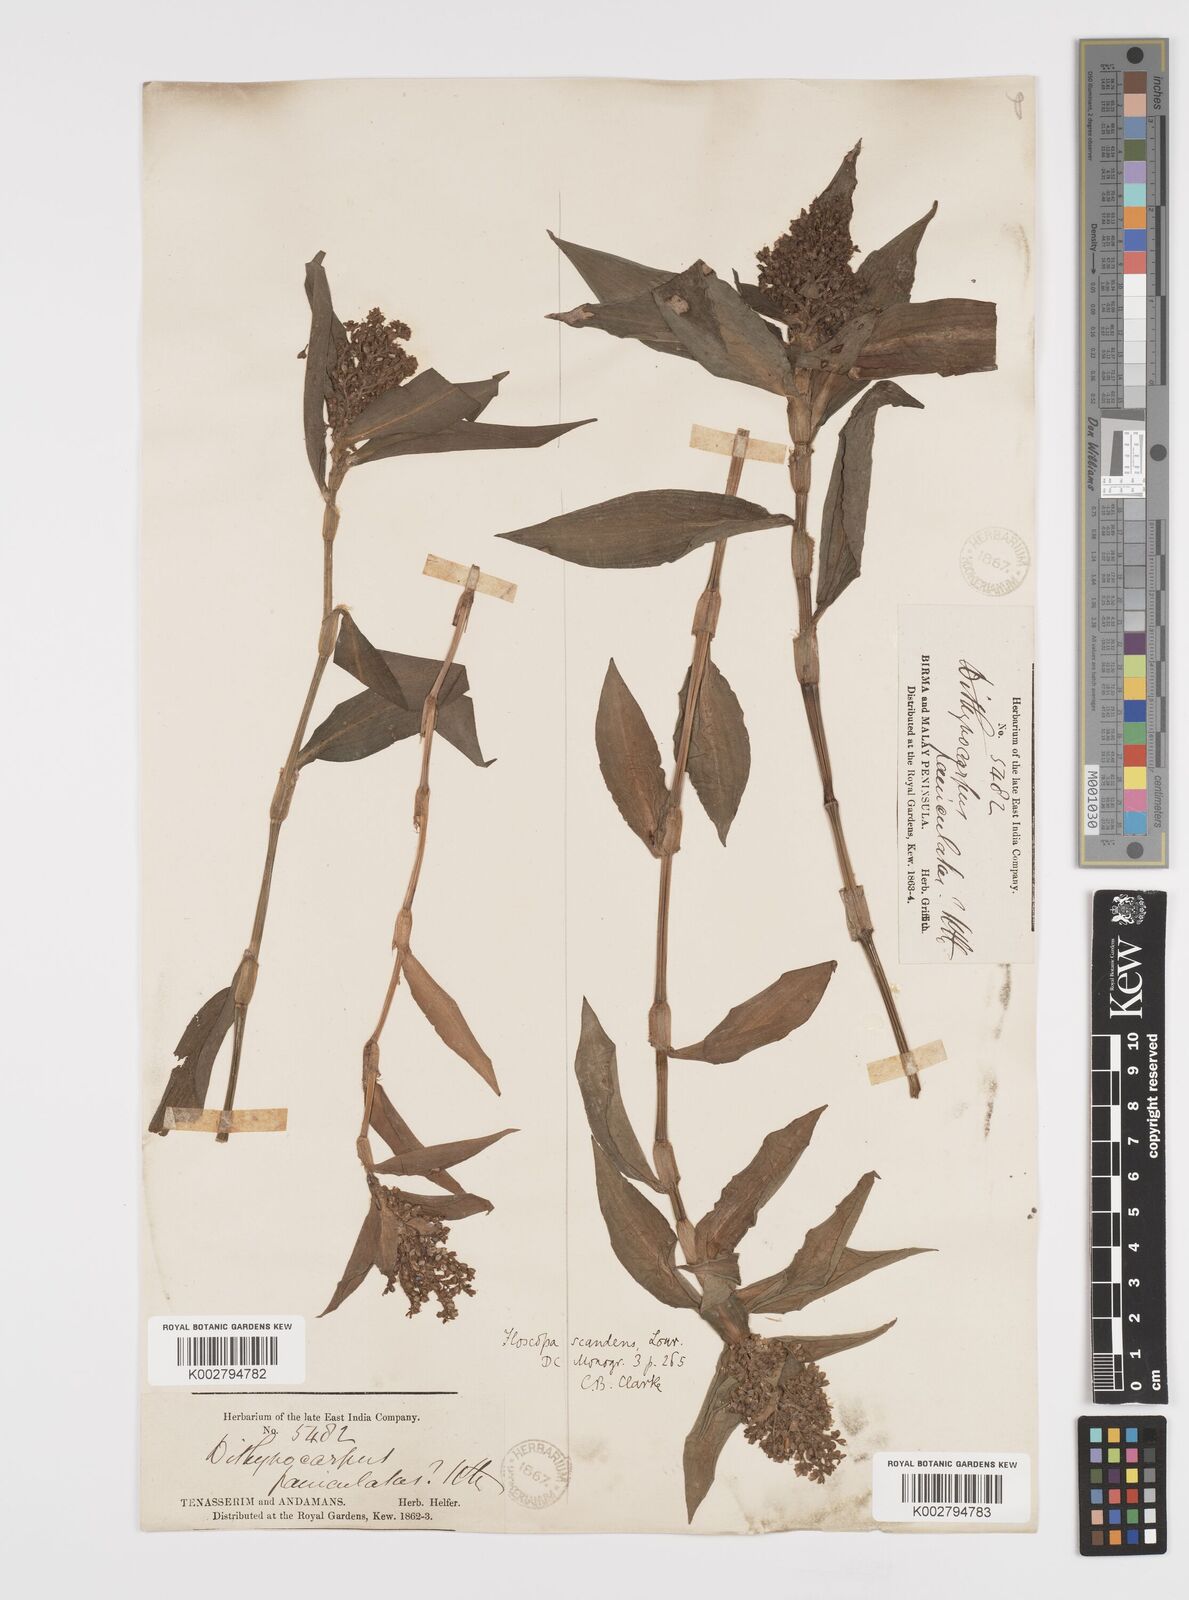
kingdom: Plantae
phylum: Tracheophyta
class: Liliopsida
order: Commelinales
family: Commelinaceae
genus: Floscopa
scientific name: Floscopa scandens
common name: Climbing flower cup
